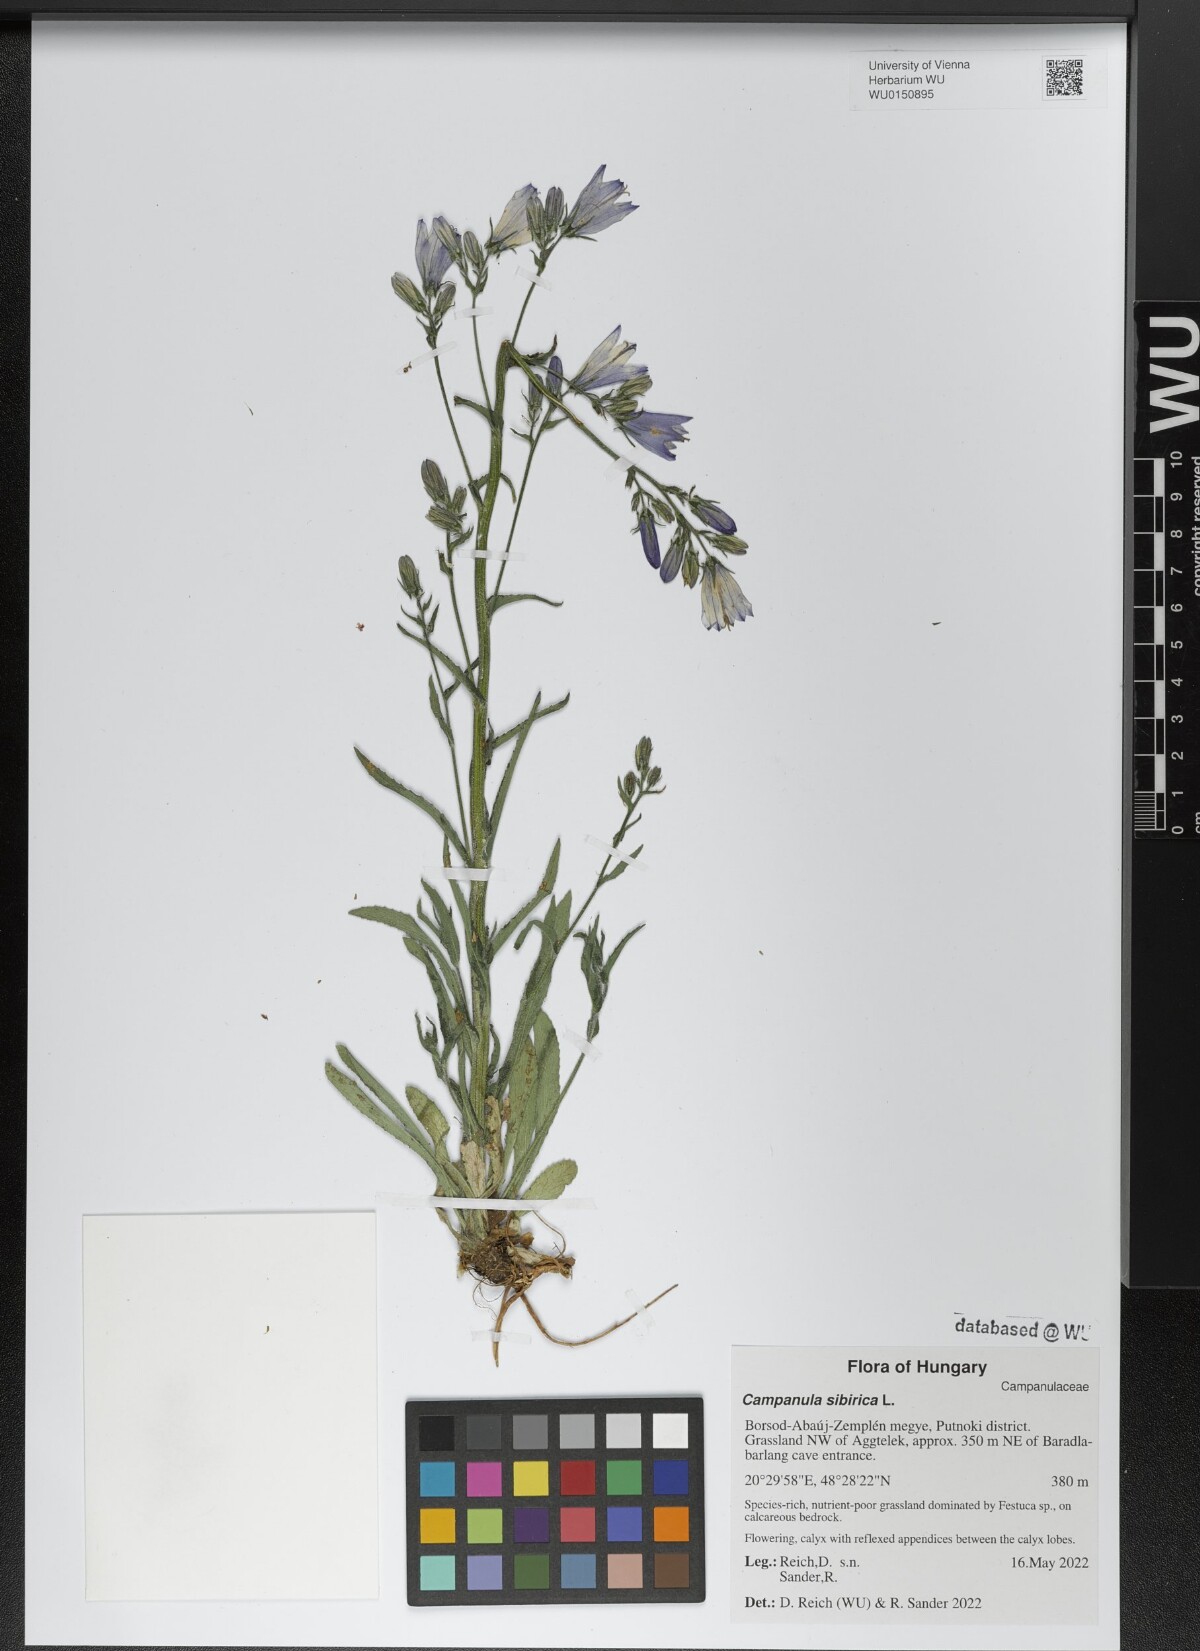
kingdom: Plantae
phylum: Tracheophyta
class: Magnoliopsida
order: Asterales
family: Campanulaceae
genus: Campanula
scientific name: Campanula sibirica
